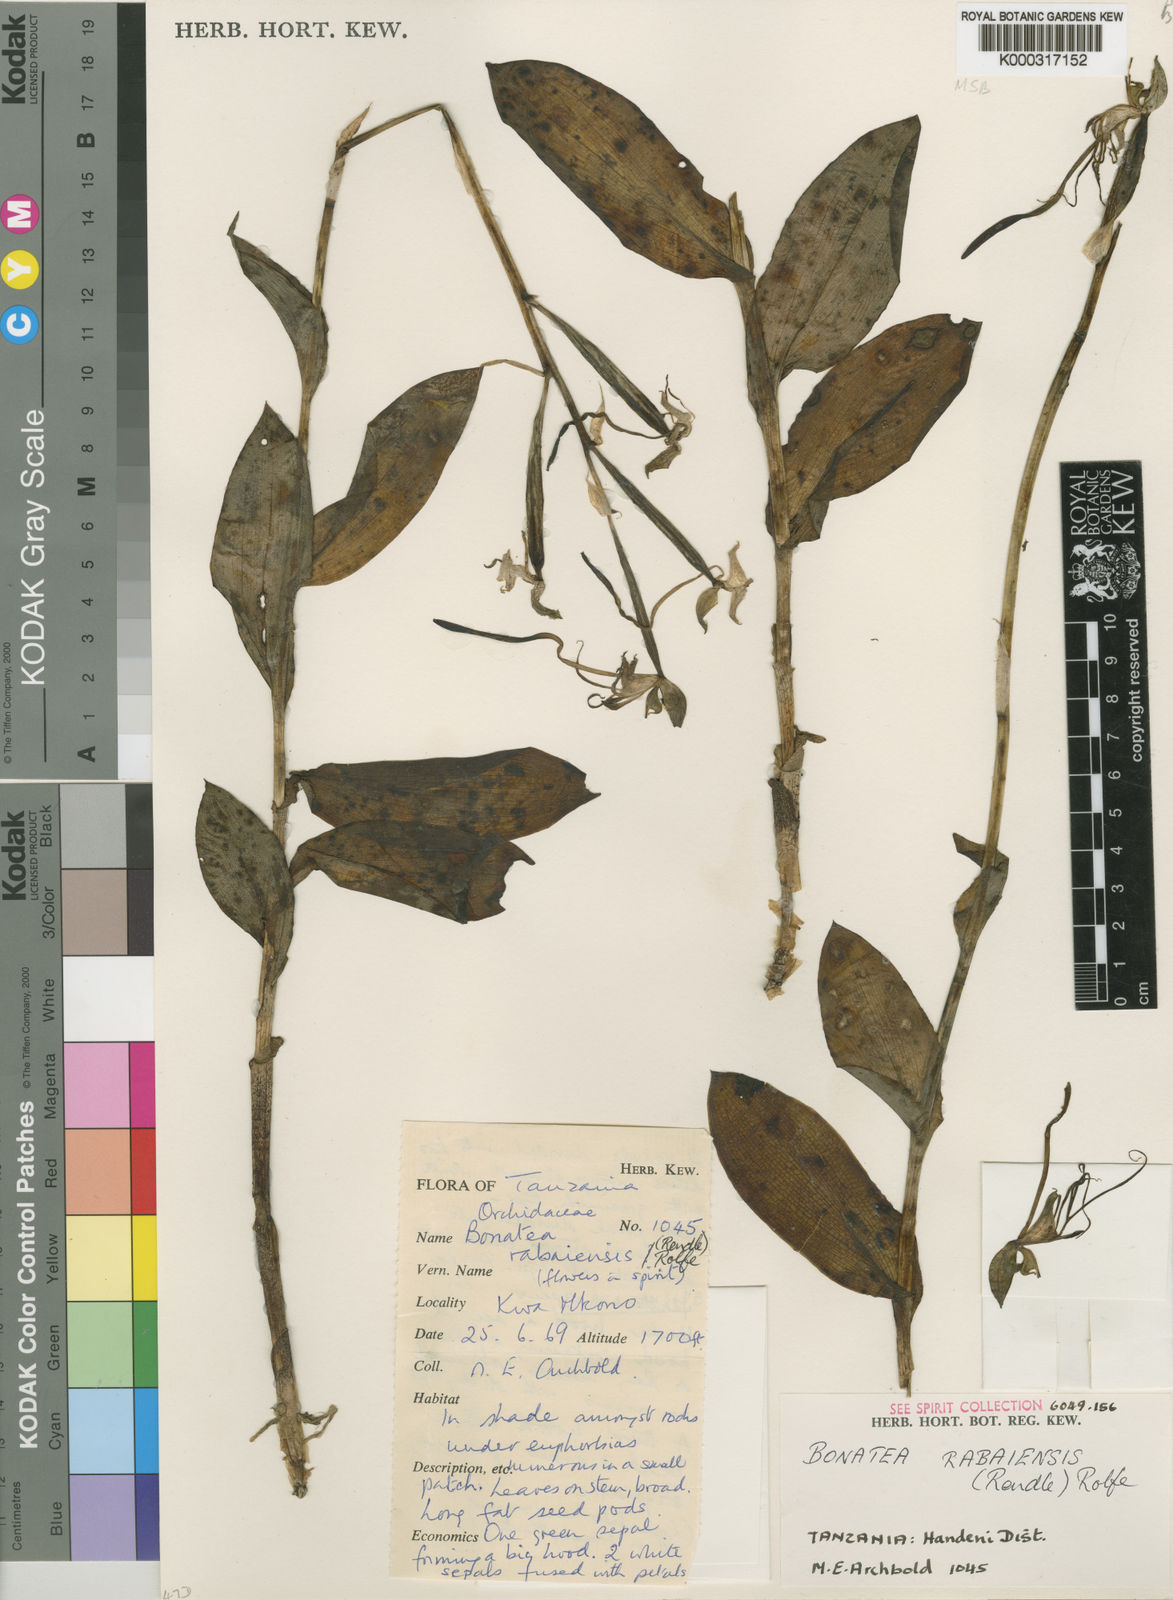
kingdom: Plantae
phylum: Tracheophyta
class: Liliopsida
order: Asparagales
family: Orchidaceae
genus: Bonatea
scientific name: Bonatea rabaiensis
